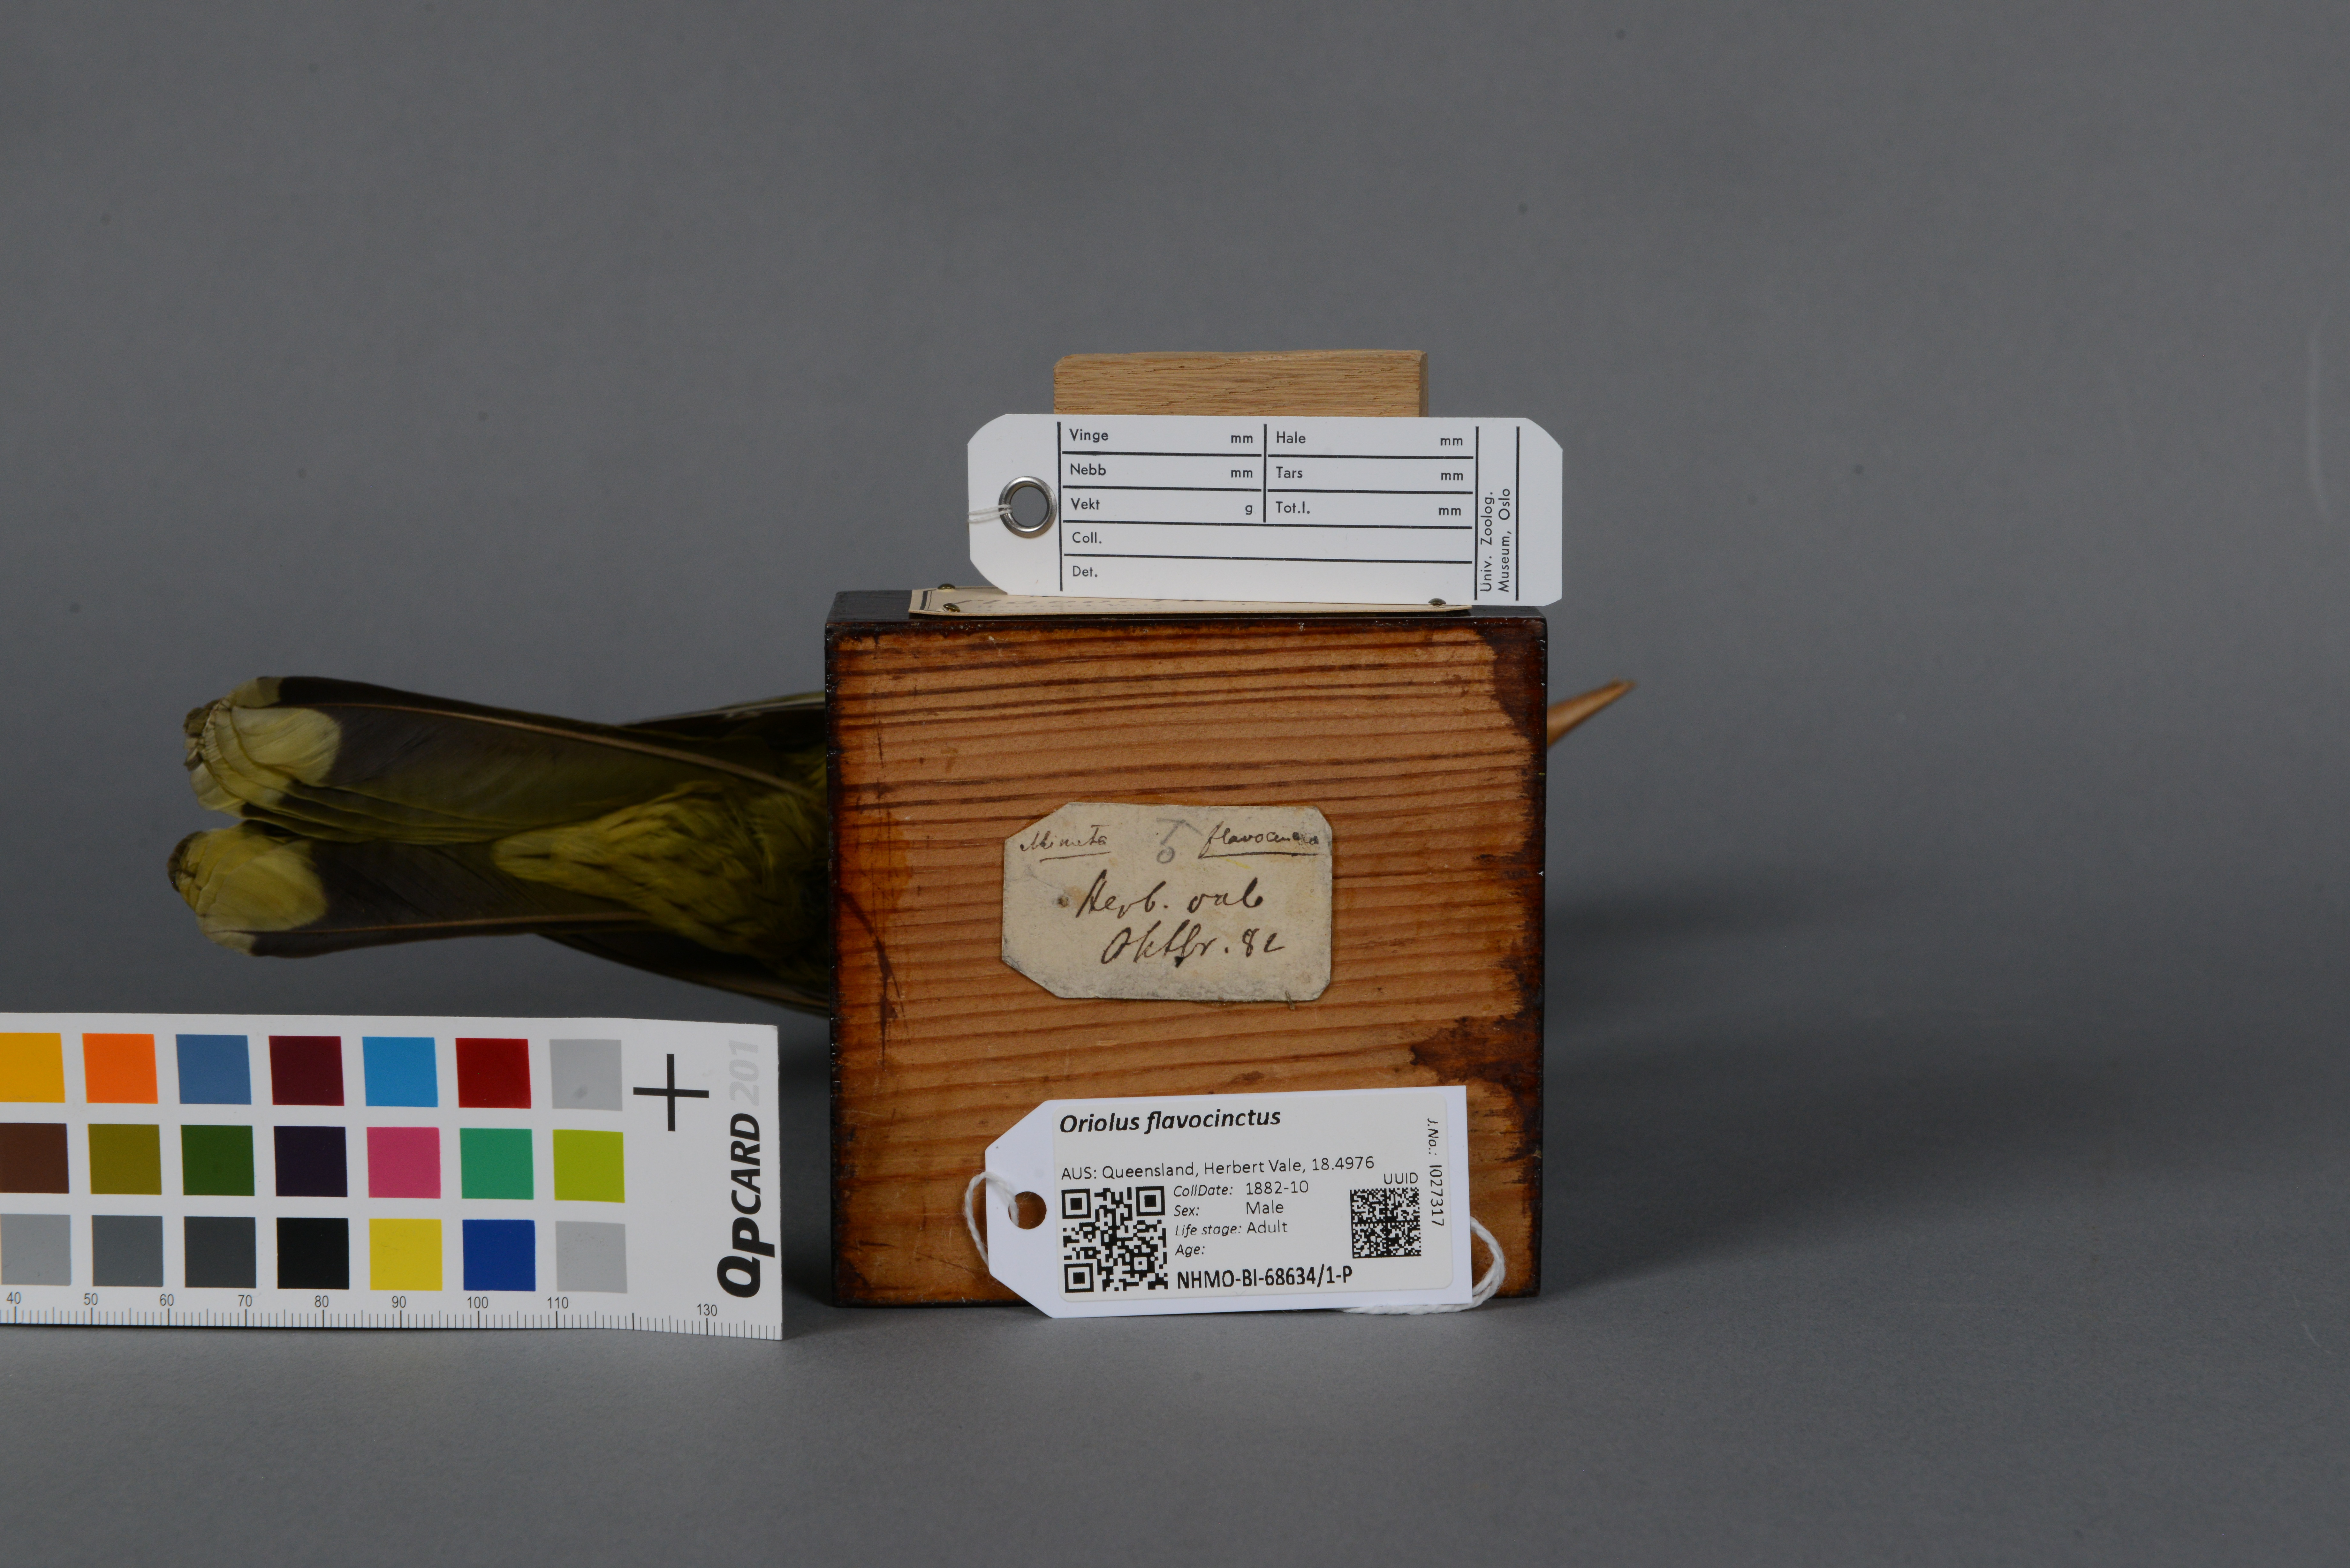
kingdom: Animalia
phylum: Chordata
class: Aves
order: Passeriformes
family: Oriolidae
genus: Oriolus
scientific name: Oriolus flavocinctus
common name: Green oriole
